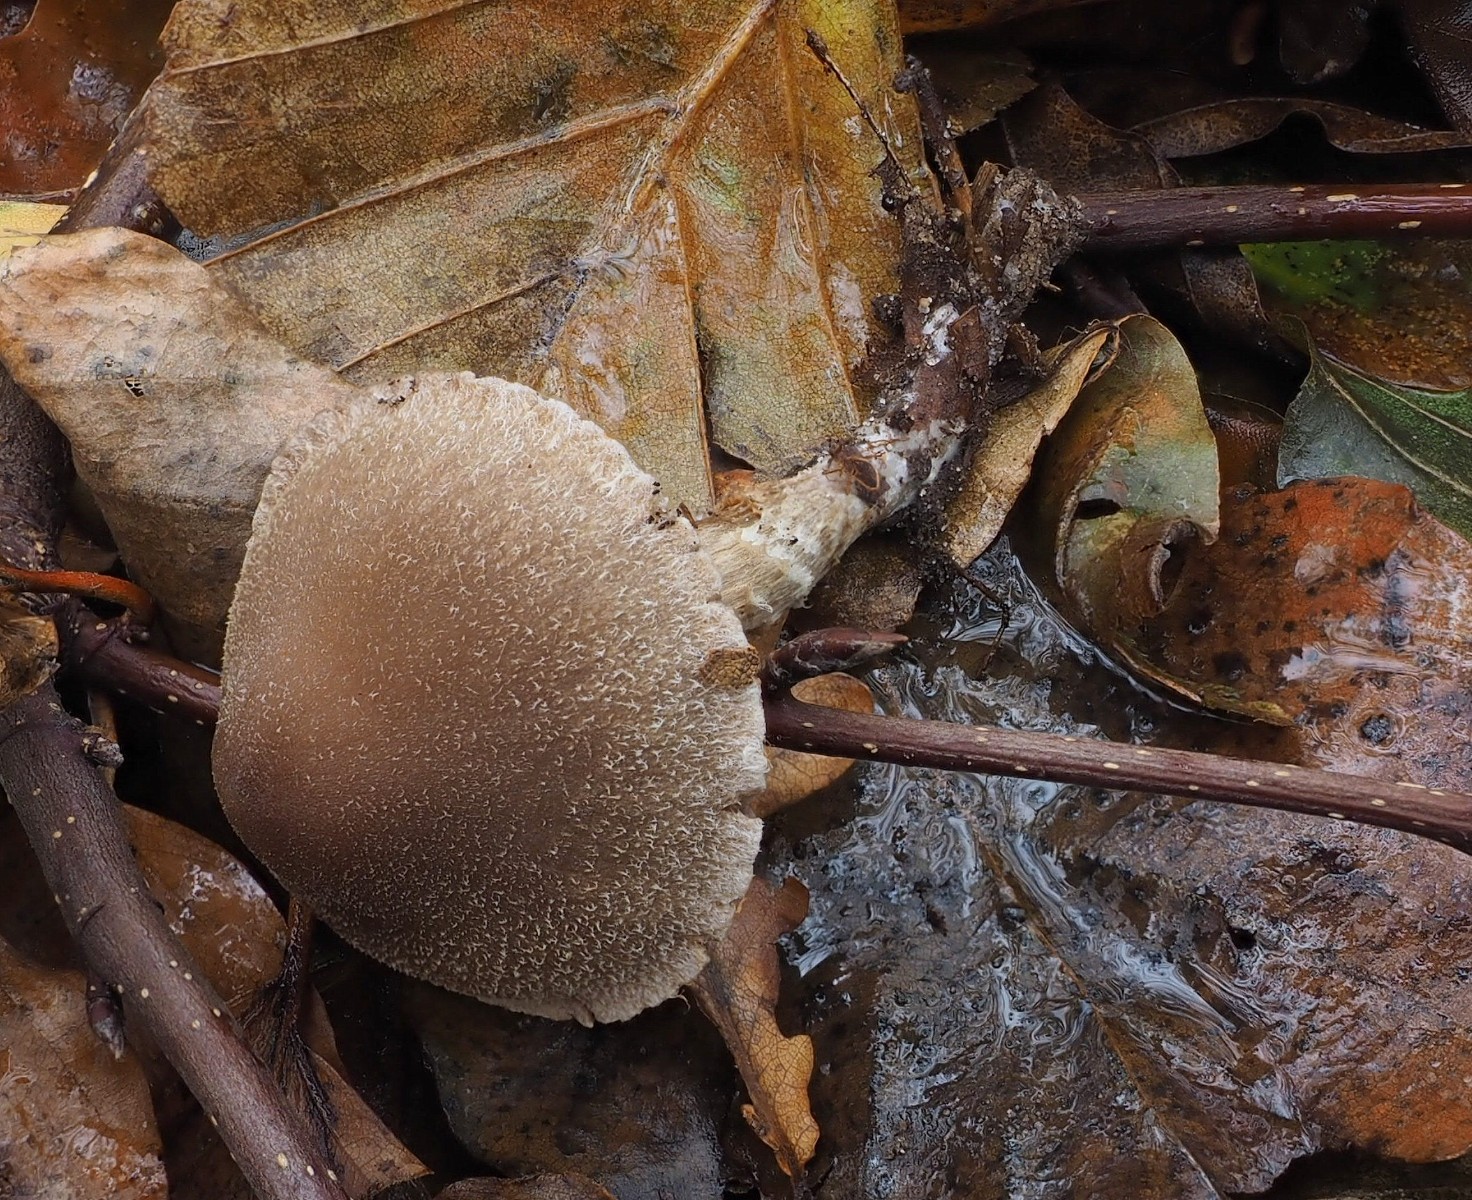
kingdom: Fungi
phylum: Basidiomycota
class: Agaricomycetes
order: Agaricales
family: Cortinariaceae
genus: Cortinarius
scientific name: Cortinarius geraniolens
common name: geranium-slørhat
